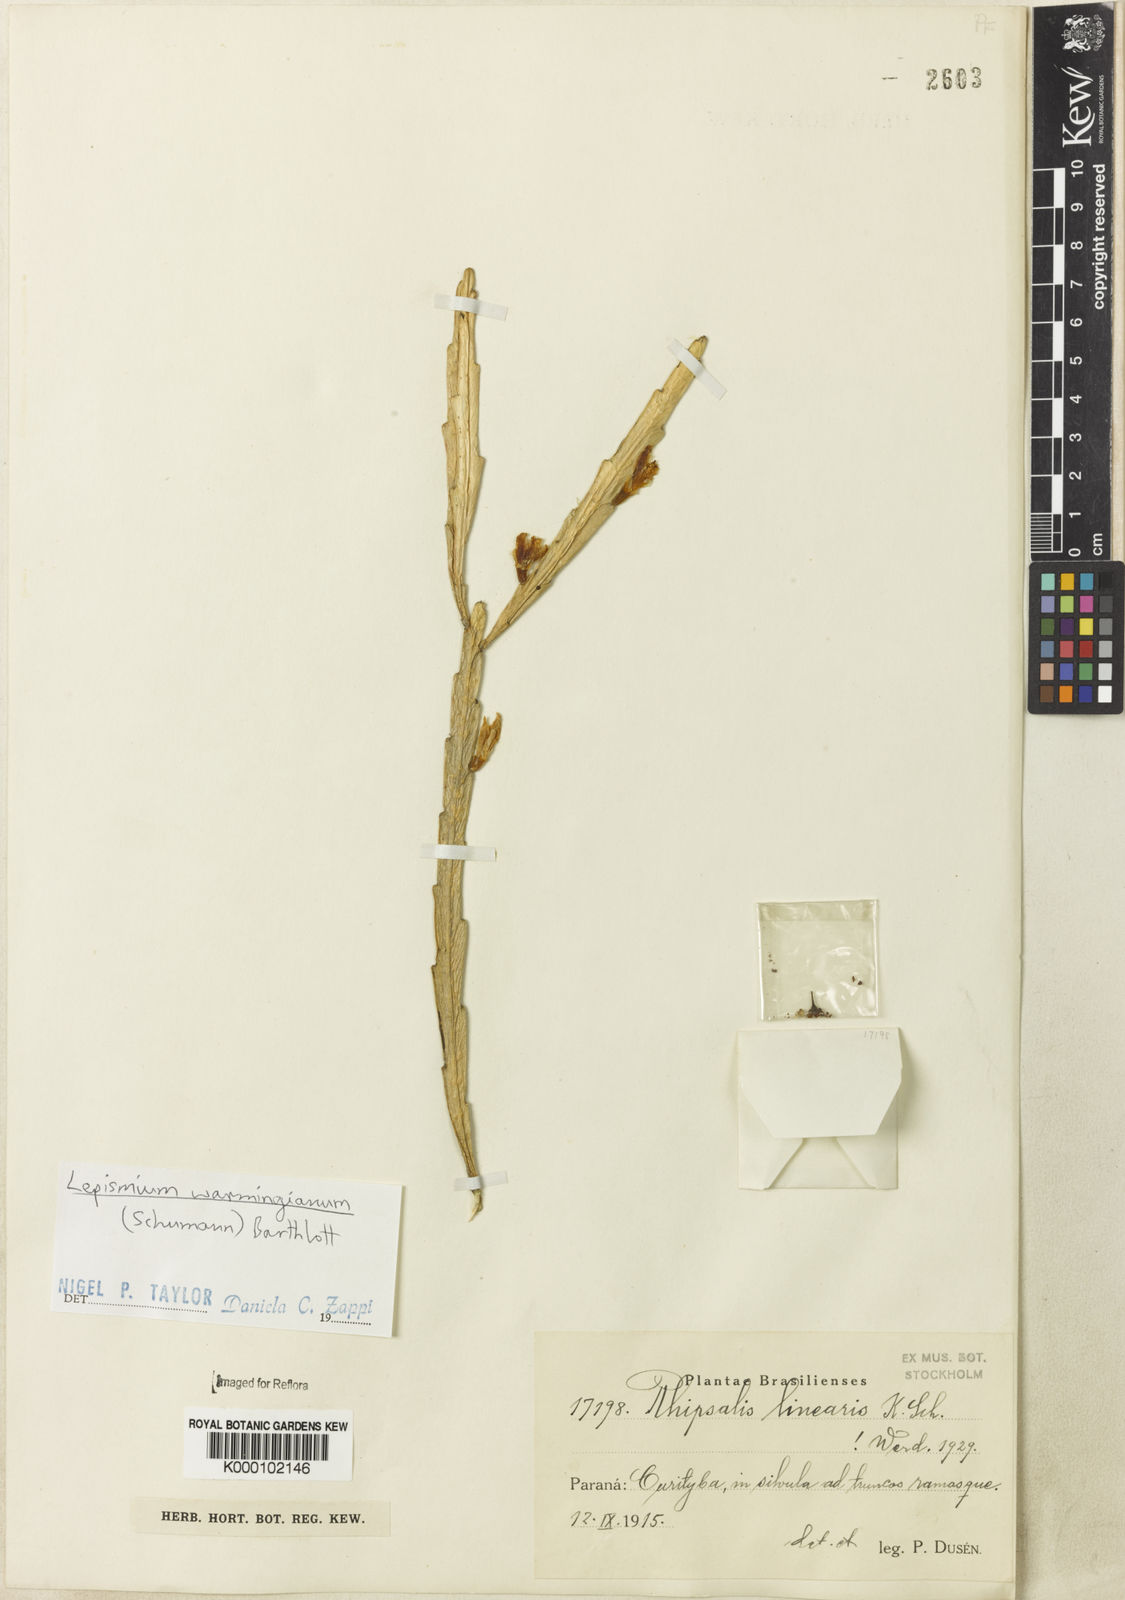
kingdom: Plantae
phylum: Tracheophyta
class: Magnoliopsida
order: Caryophyllales
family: Cactaceae
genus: Lepismium
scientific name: Lepismium warmingianum
